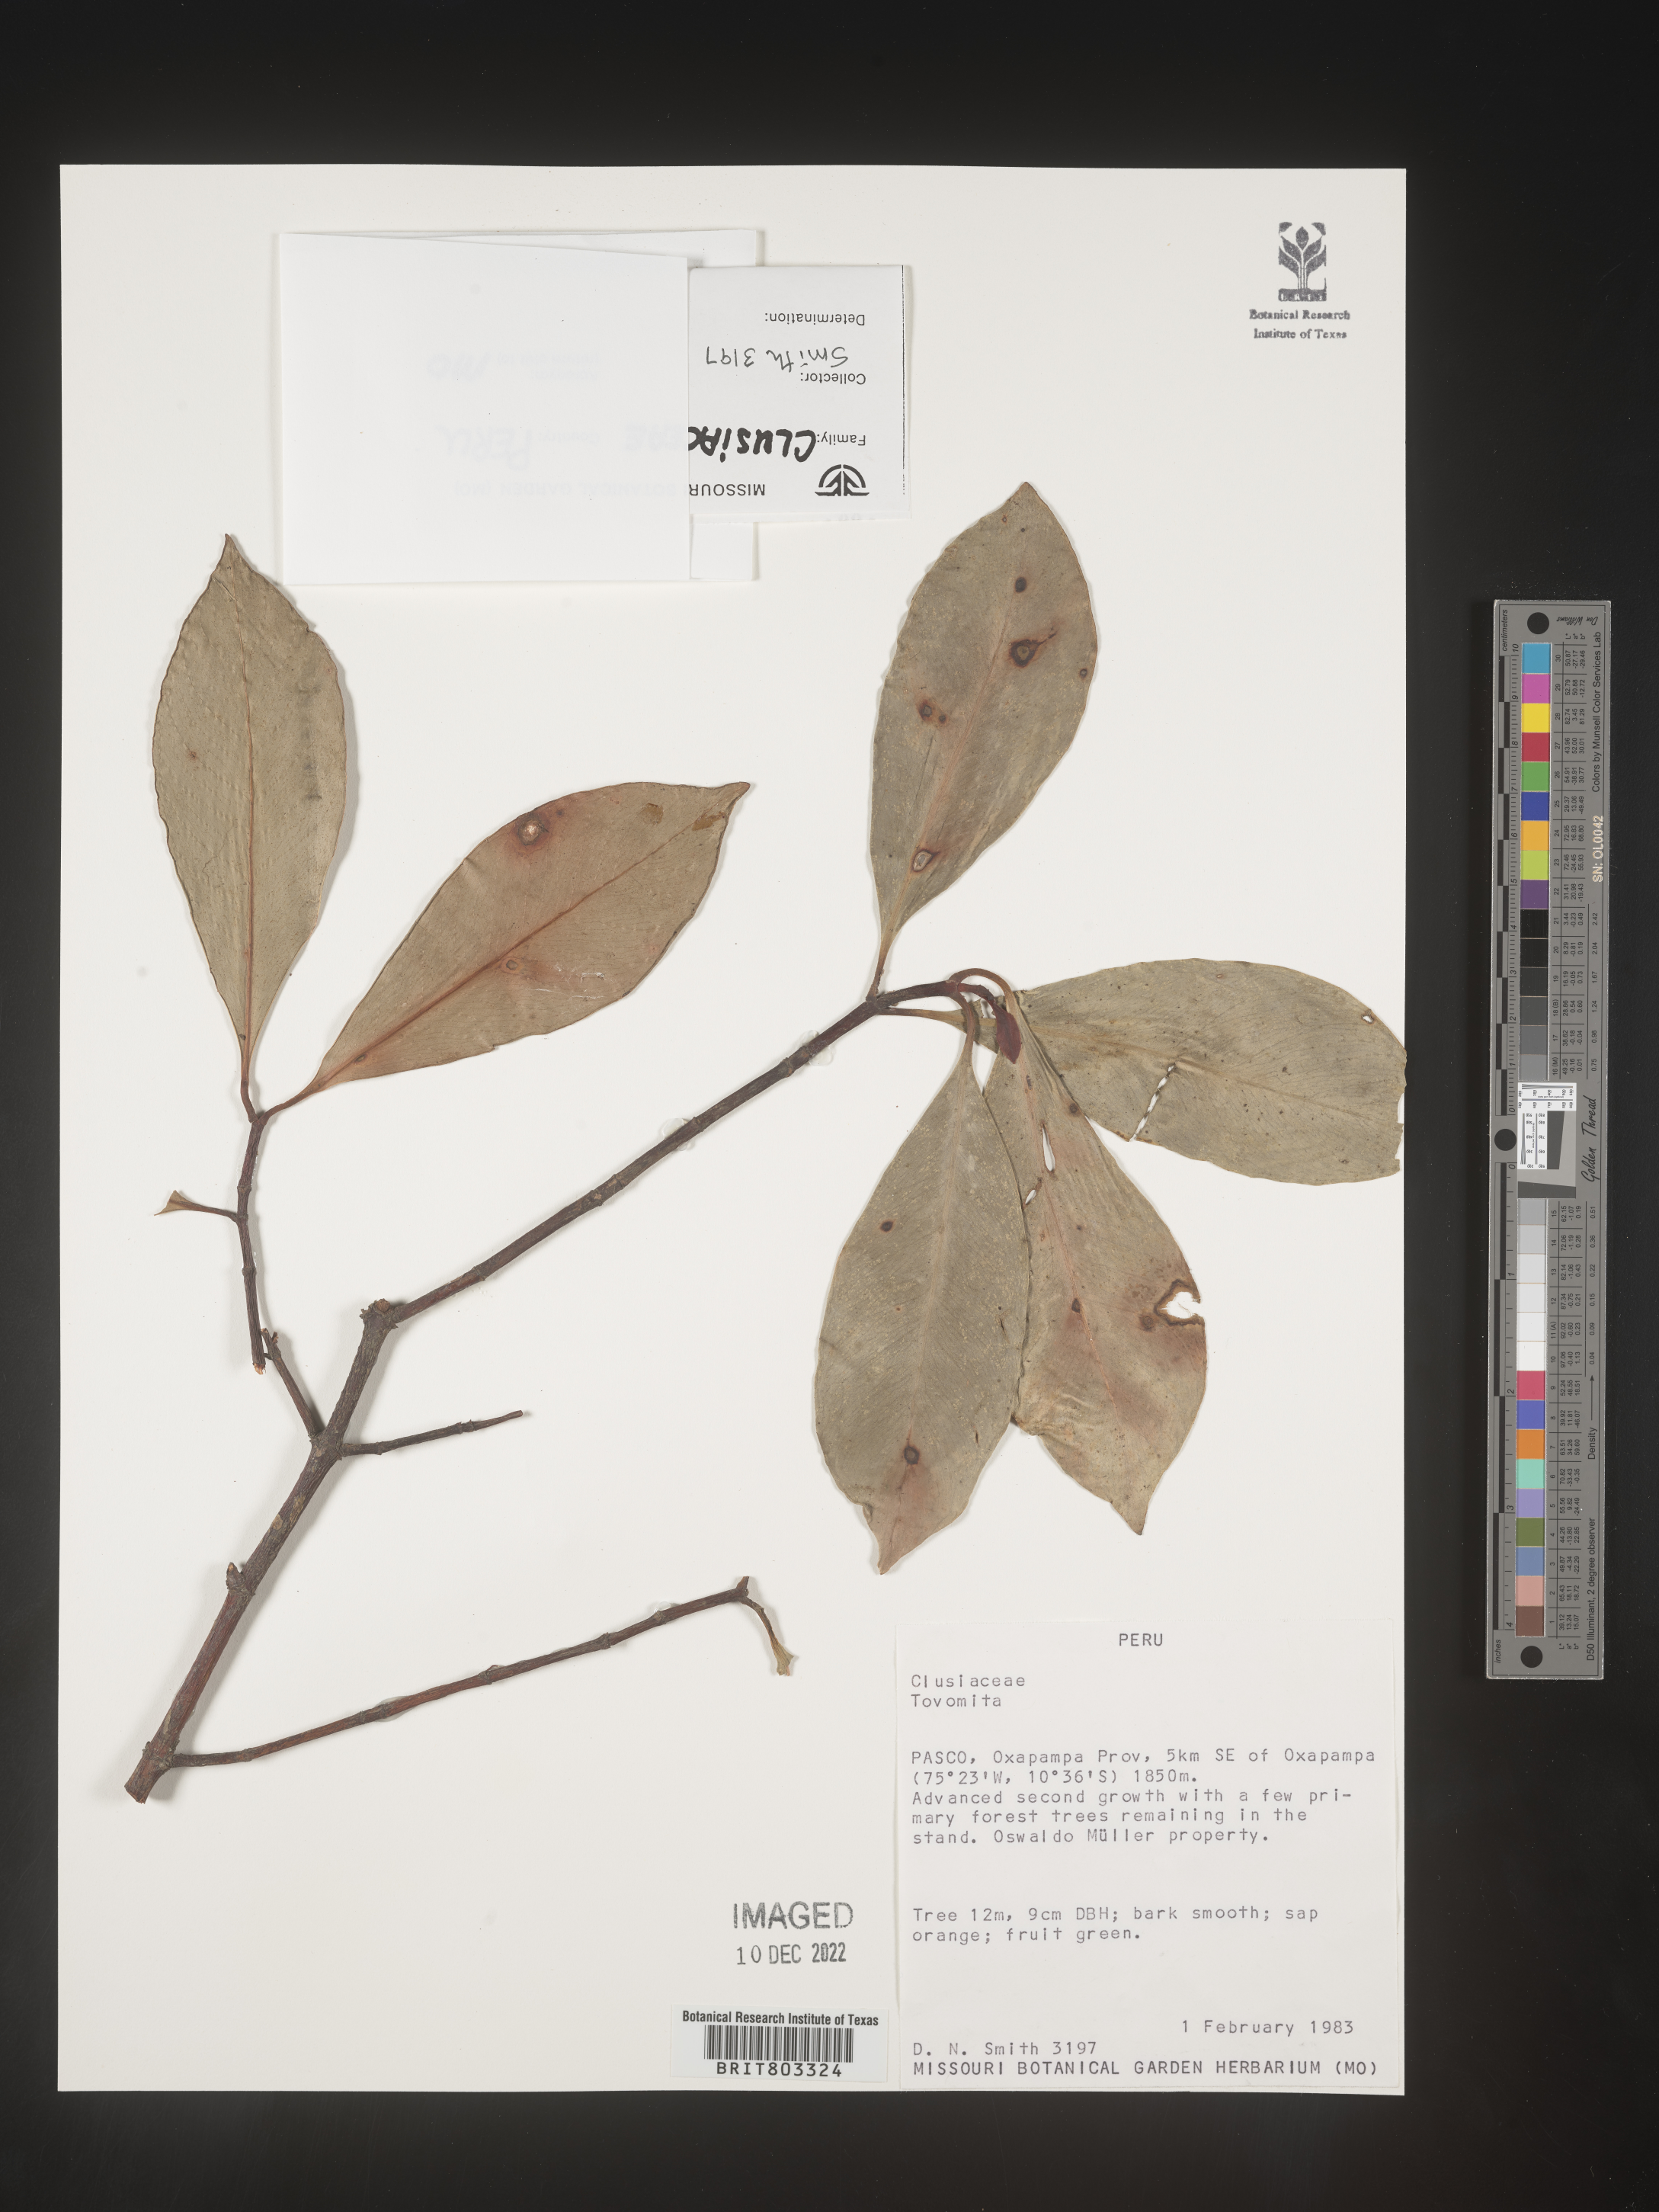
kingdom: Plantae
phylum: Tracheophyta
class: Magnoliopsida
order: Malpighiales
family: Clusiaceae
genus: Tovomita
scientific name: Tovomita
